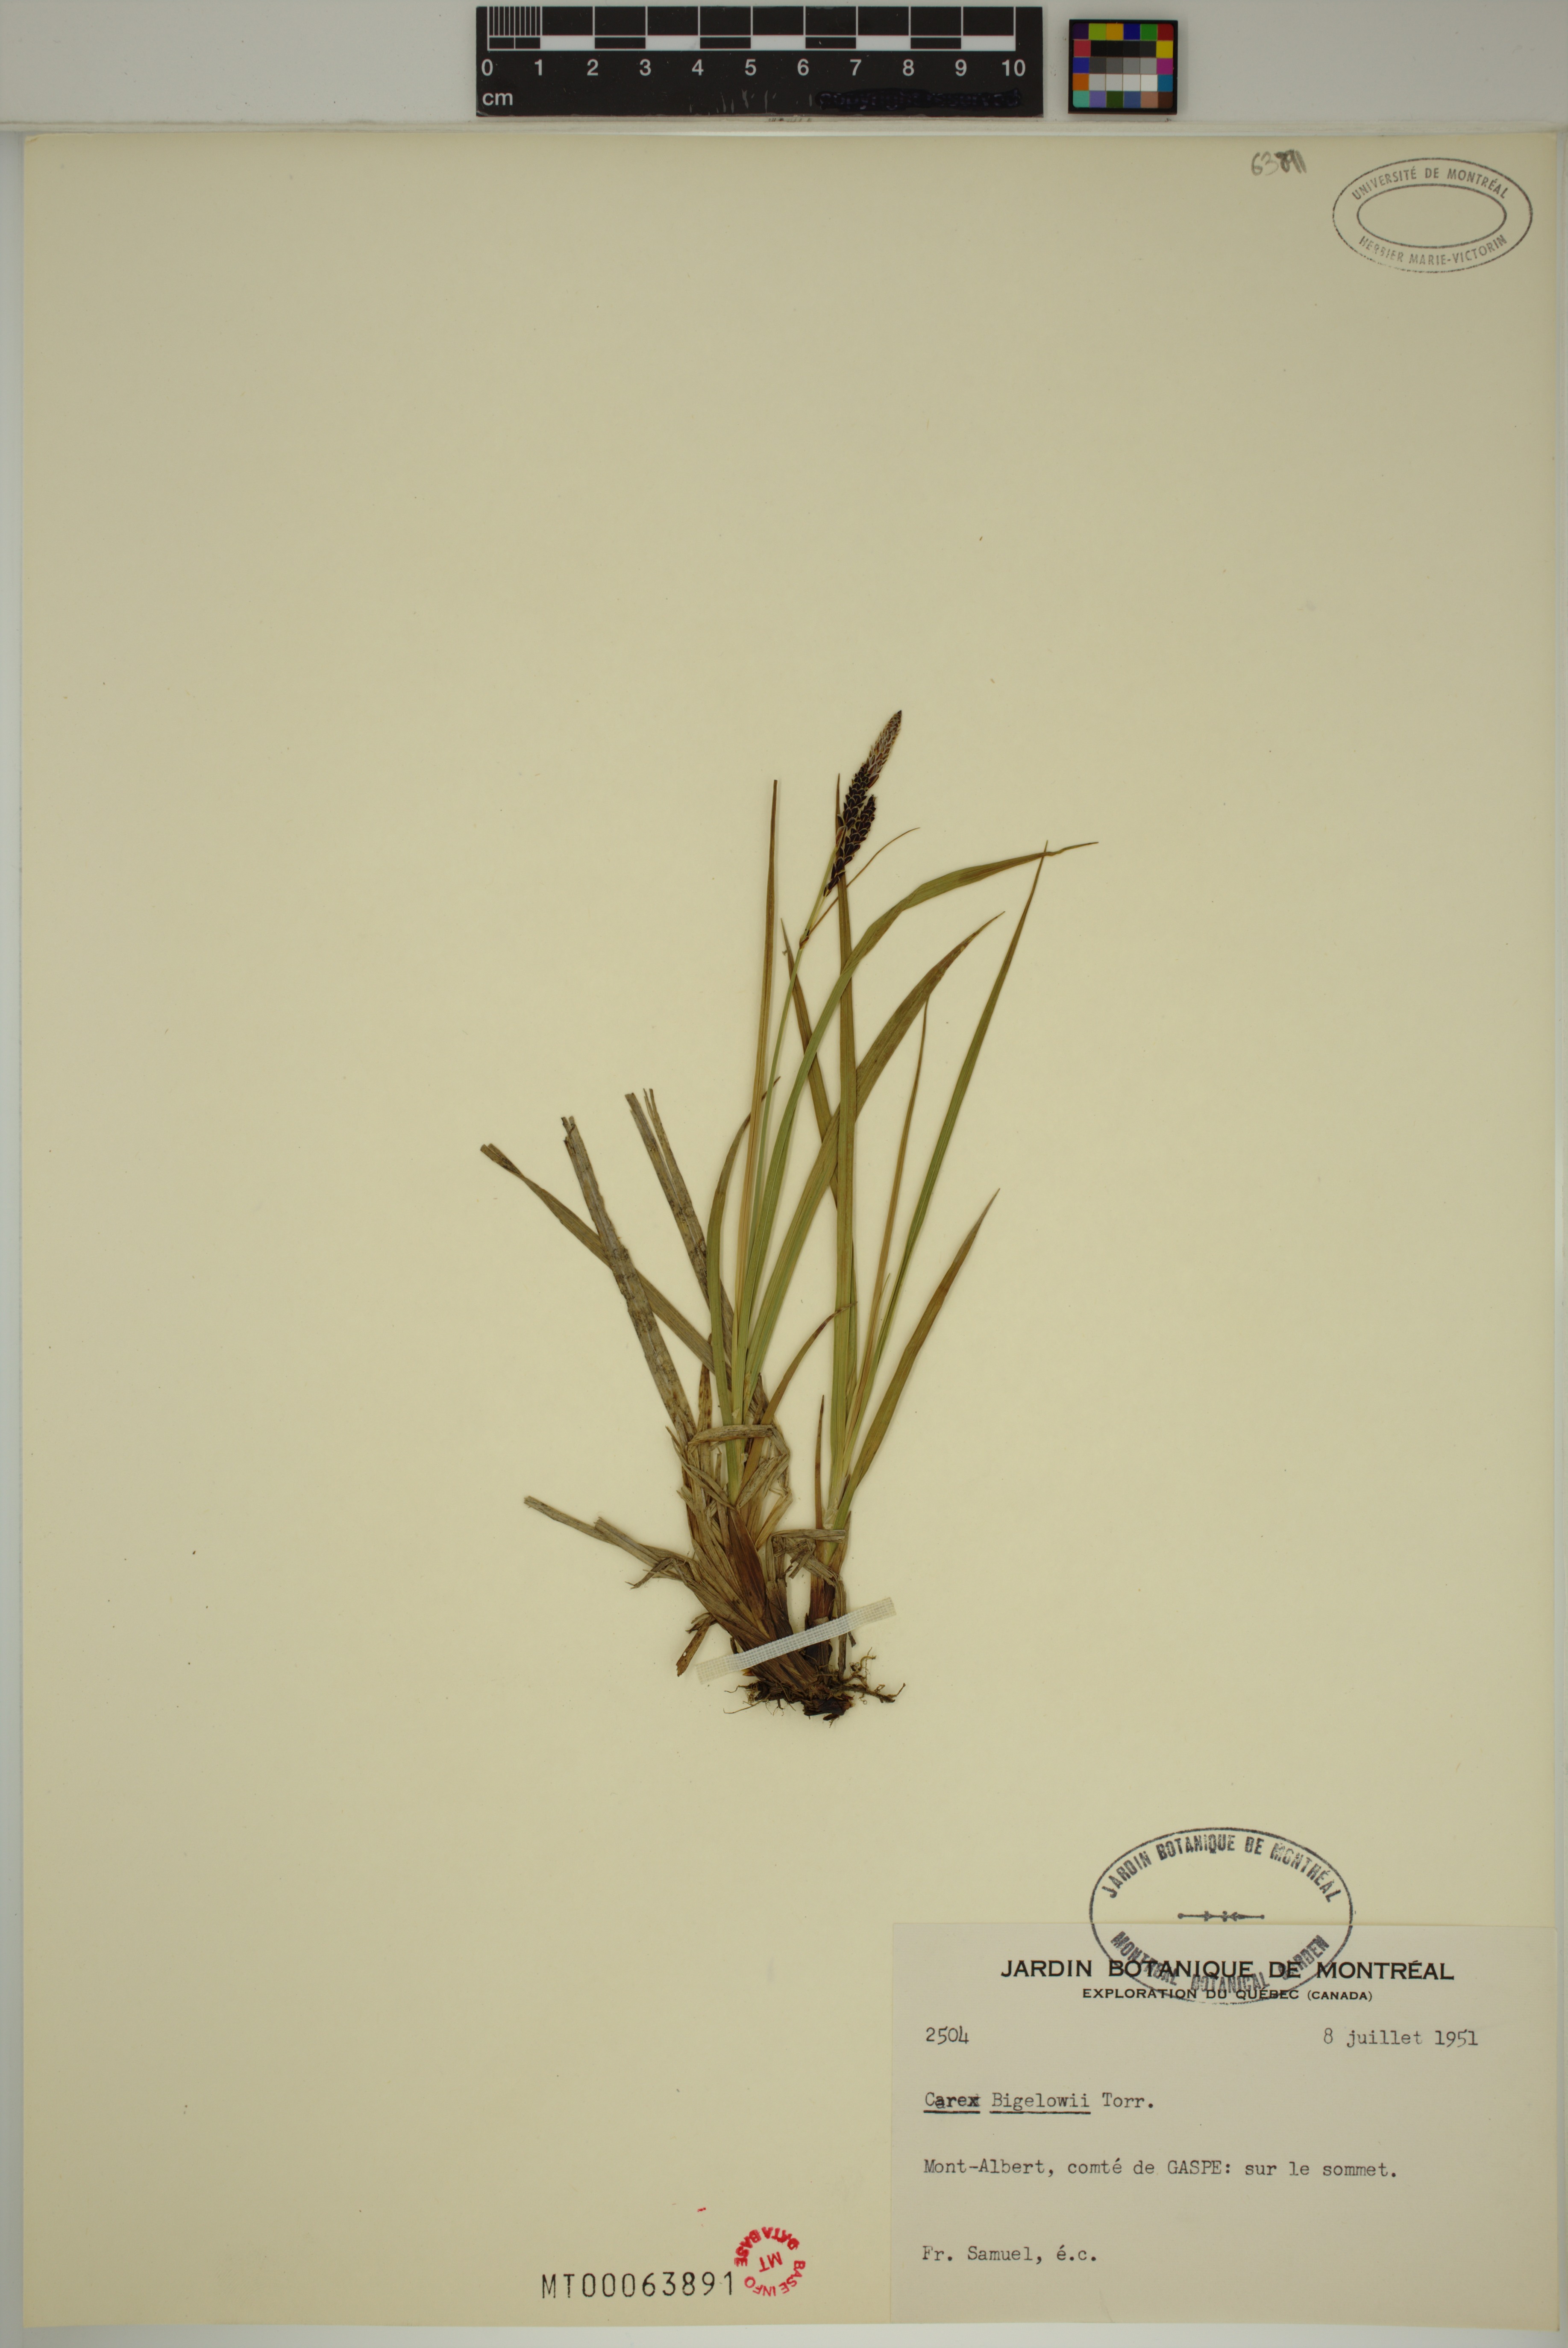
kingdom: Plantae
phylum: Tracheophyta
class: Liliopsida
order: Poales
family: Cyperaceae
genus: Carex
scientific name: Carex bigelowii
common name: Stiff sedge
